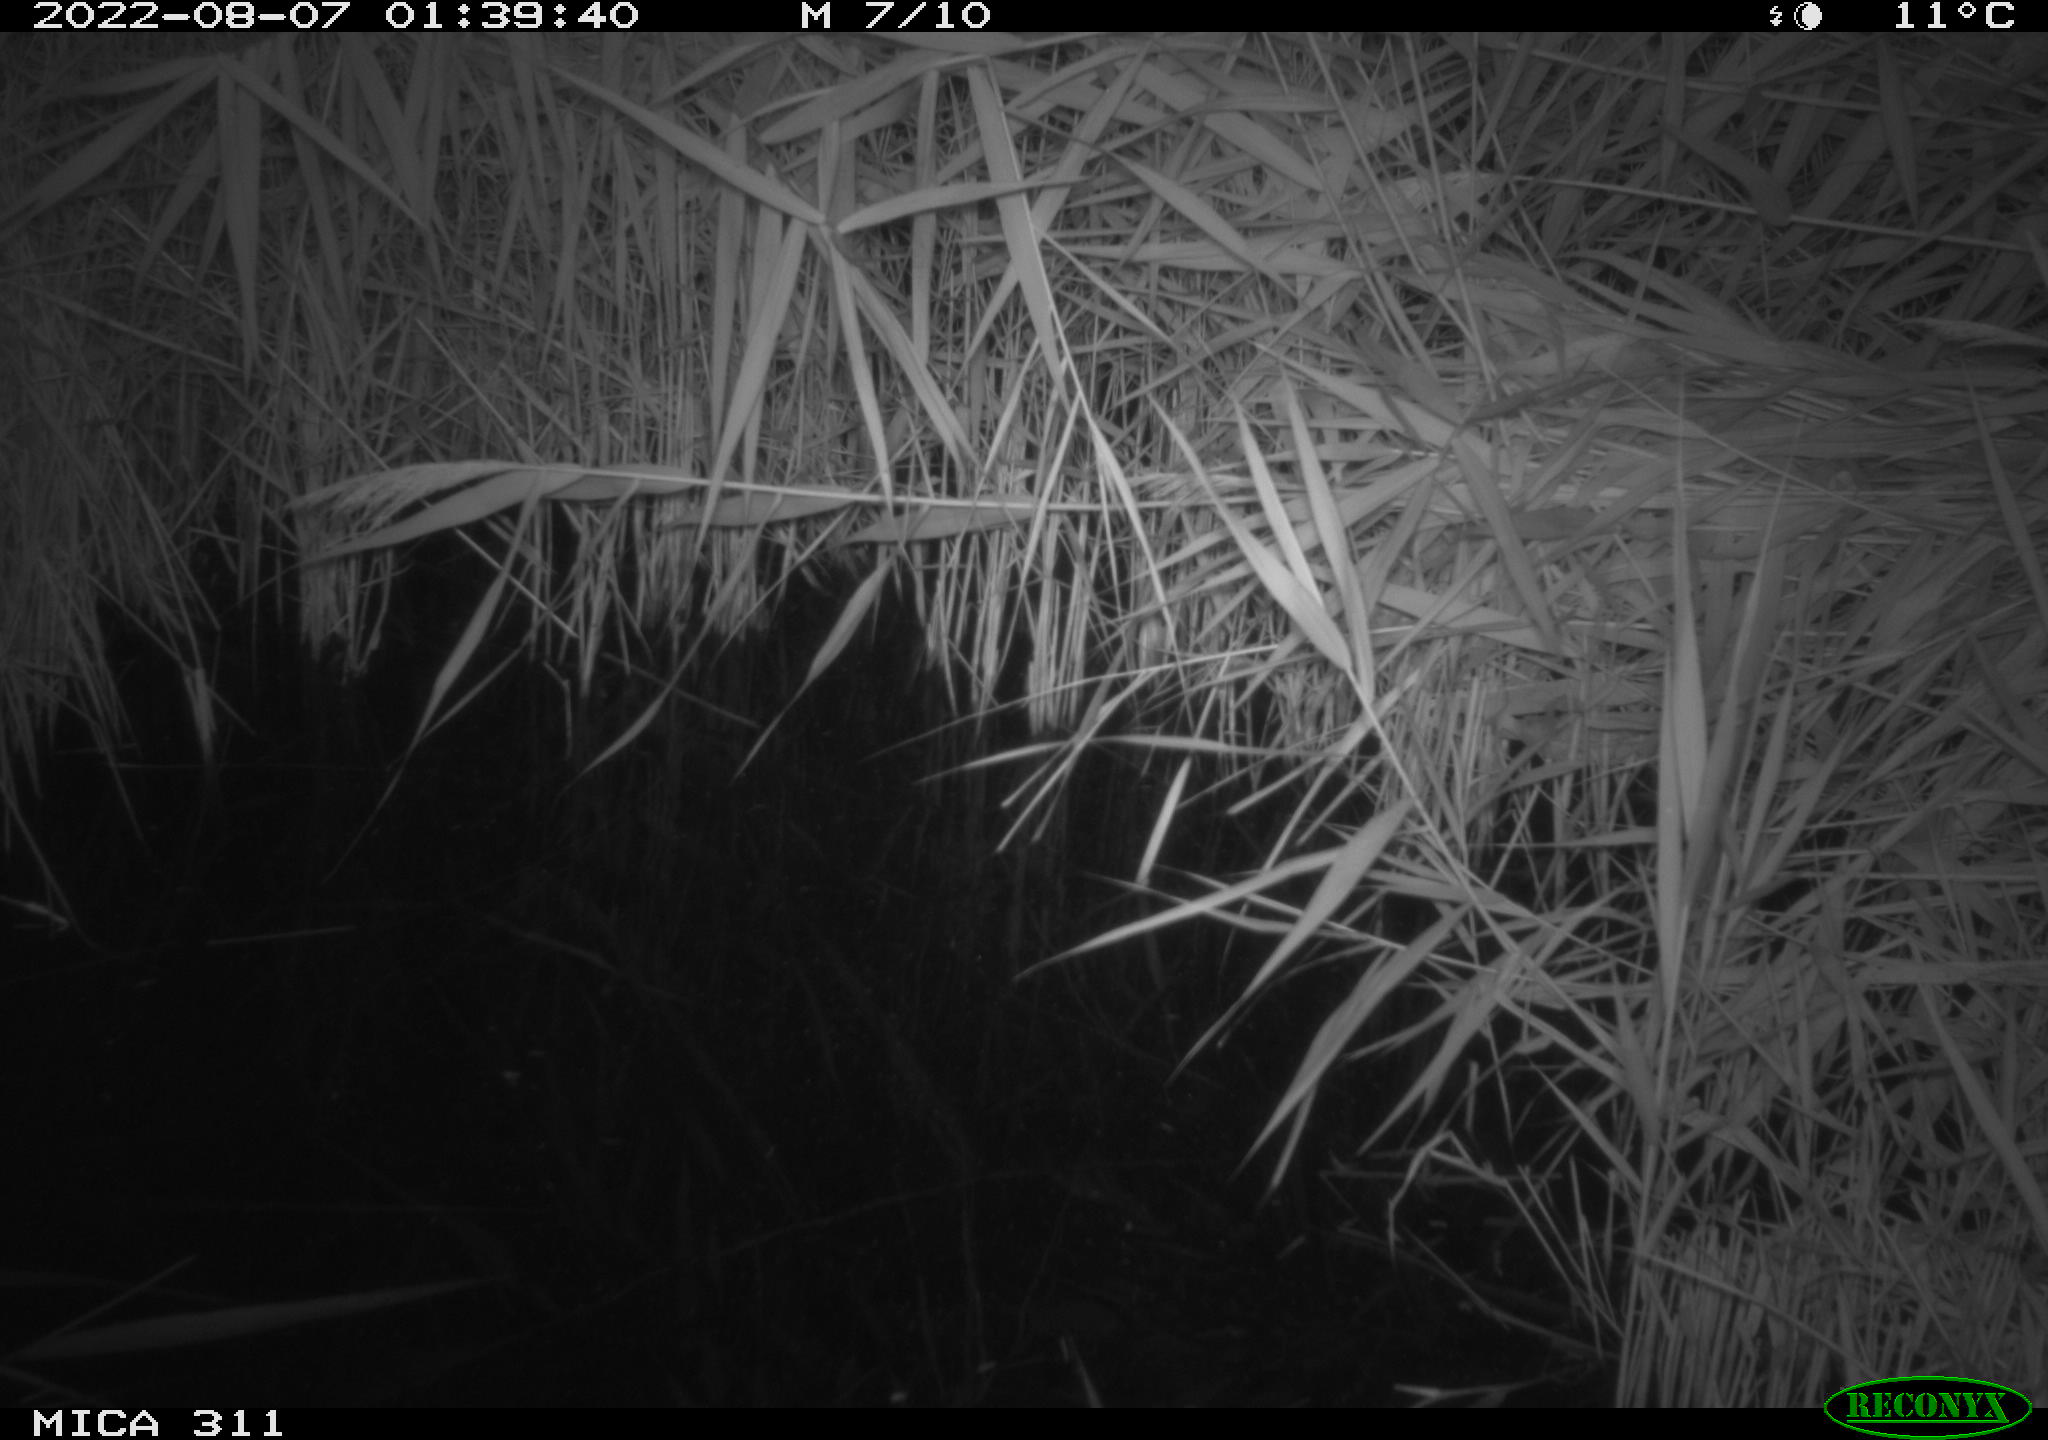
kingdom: Animalia
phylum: Chordata
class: Mammalia
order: Rodentia
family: Cricetidae
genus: Ondatra
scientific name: Ondatra zibethicus
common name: Muskrat
